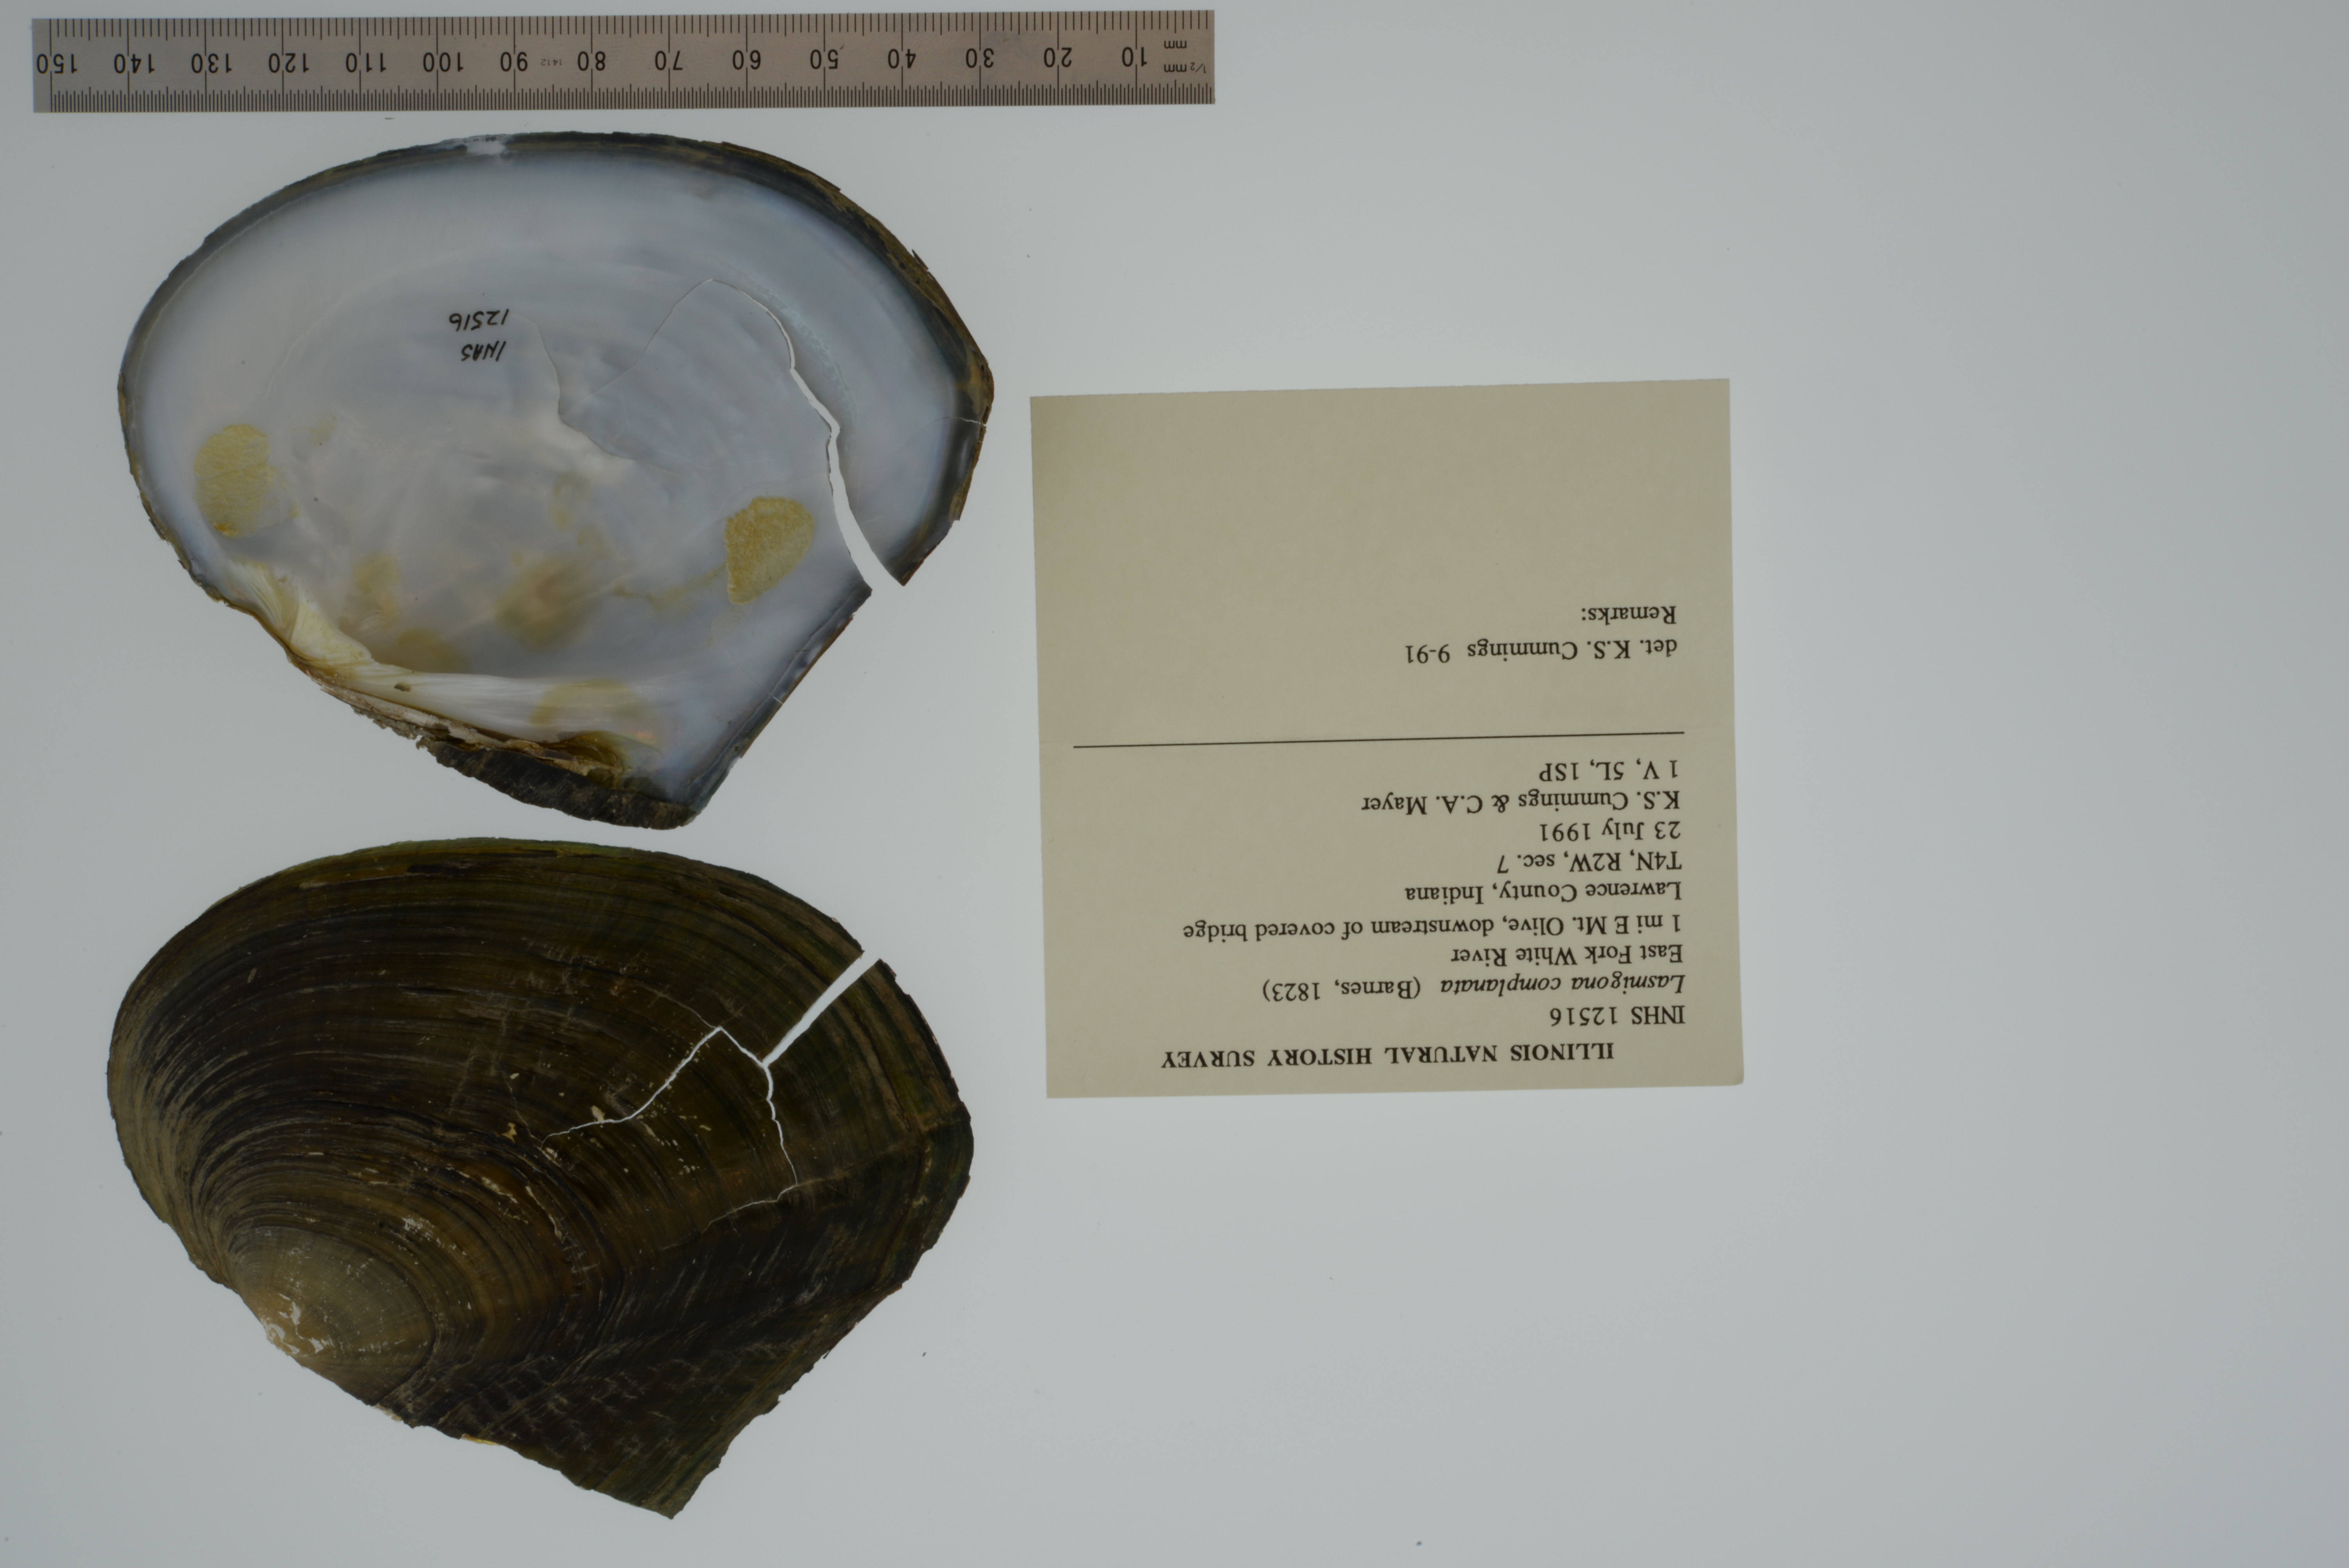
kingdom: Animalia
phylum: Mollusca
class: Bivalvia
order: Unionida
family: Unionidae
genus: Lasmigona
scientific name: Lasmigona complanata
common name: White heelsplitter
